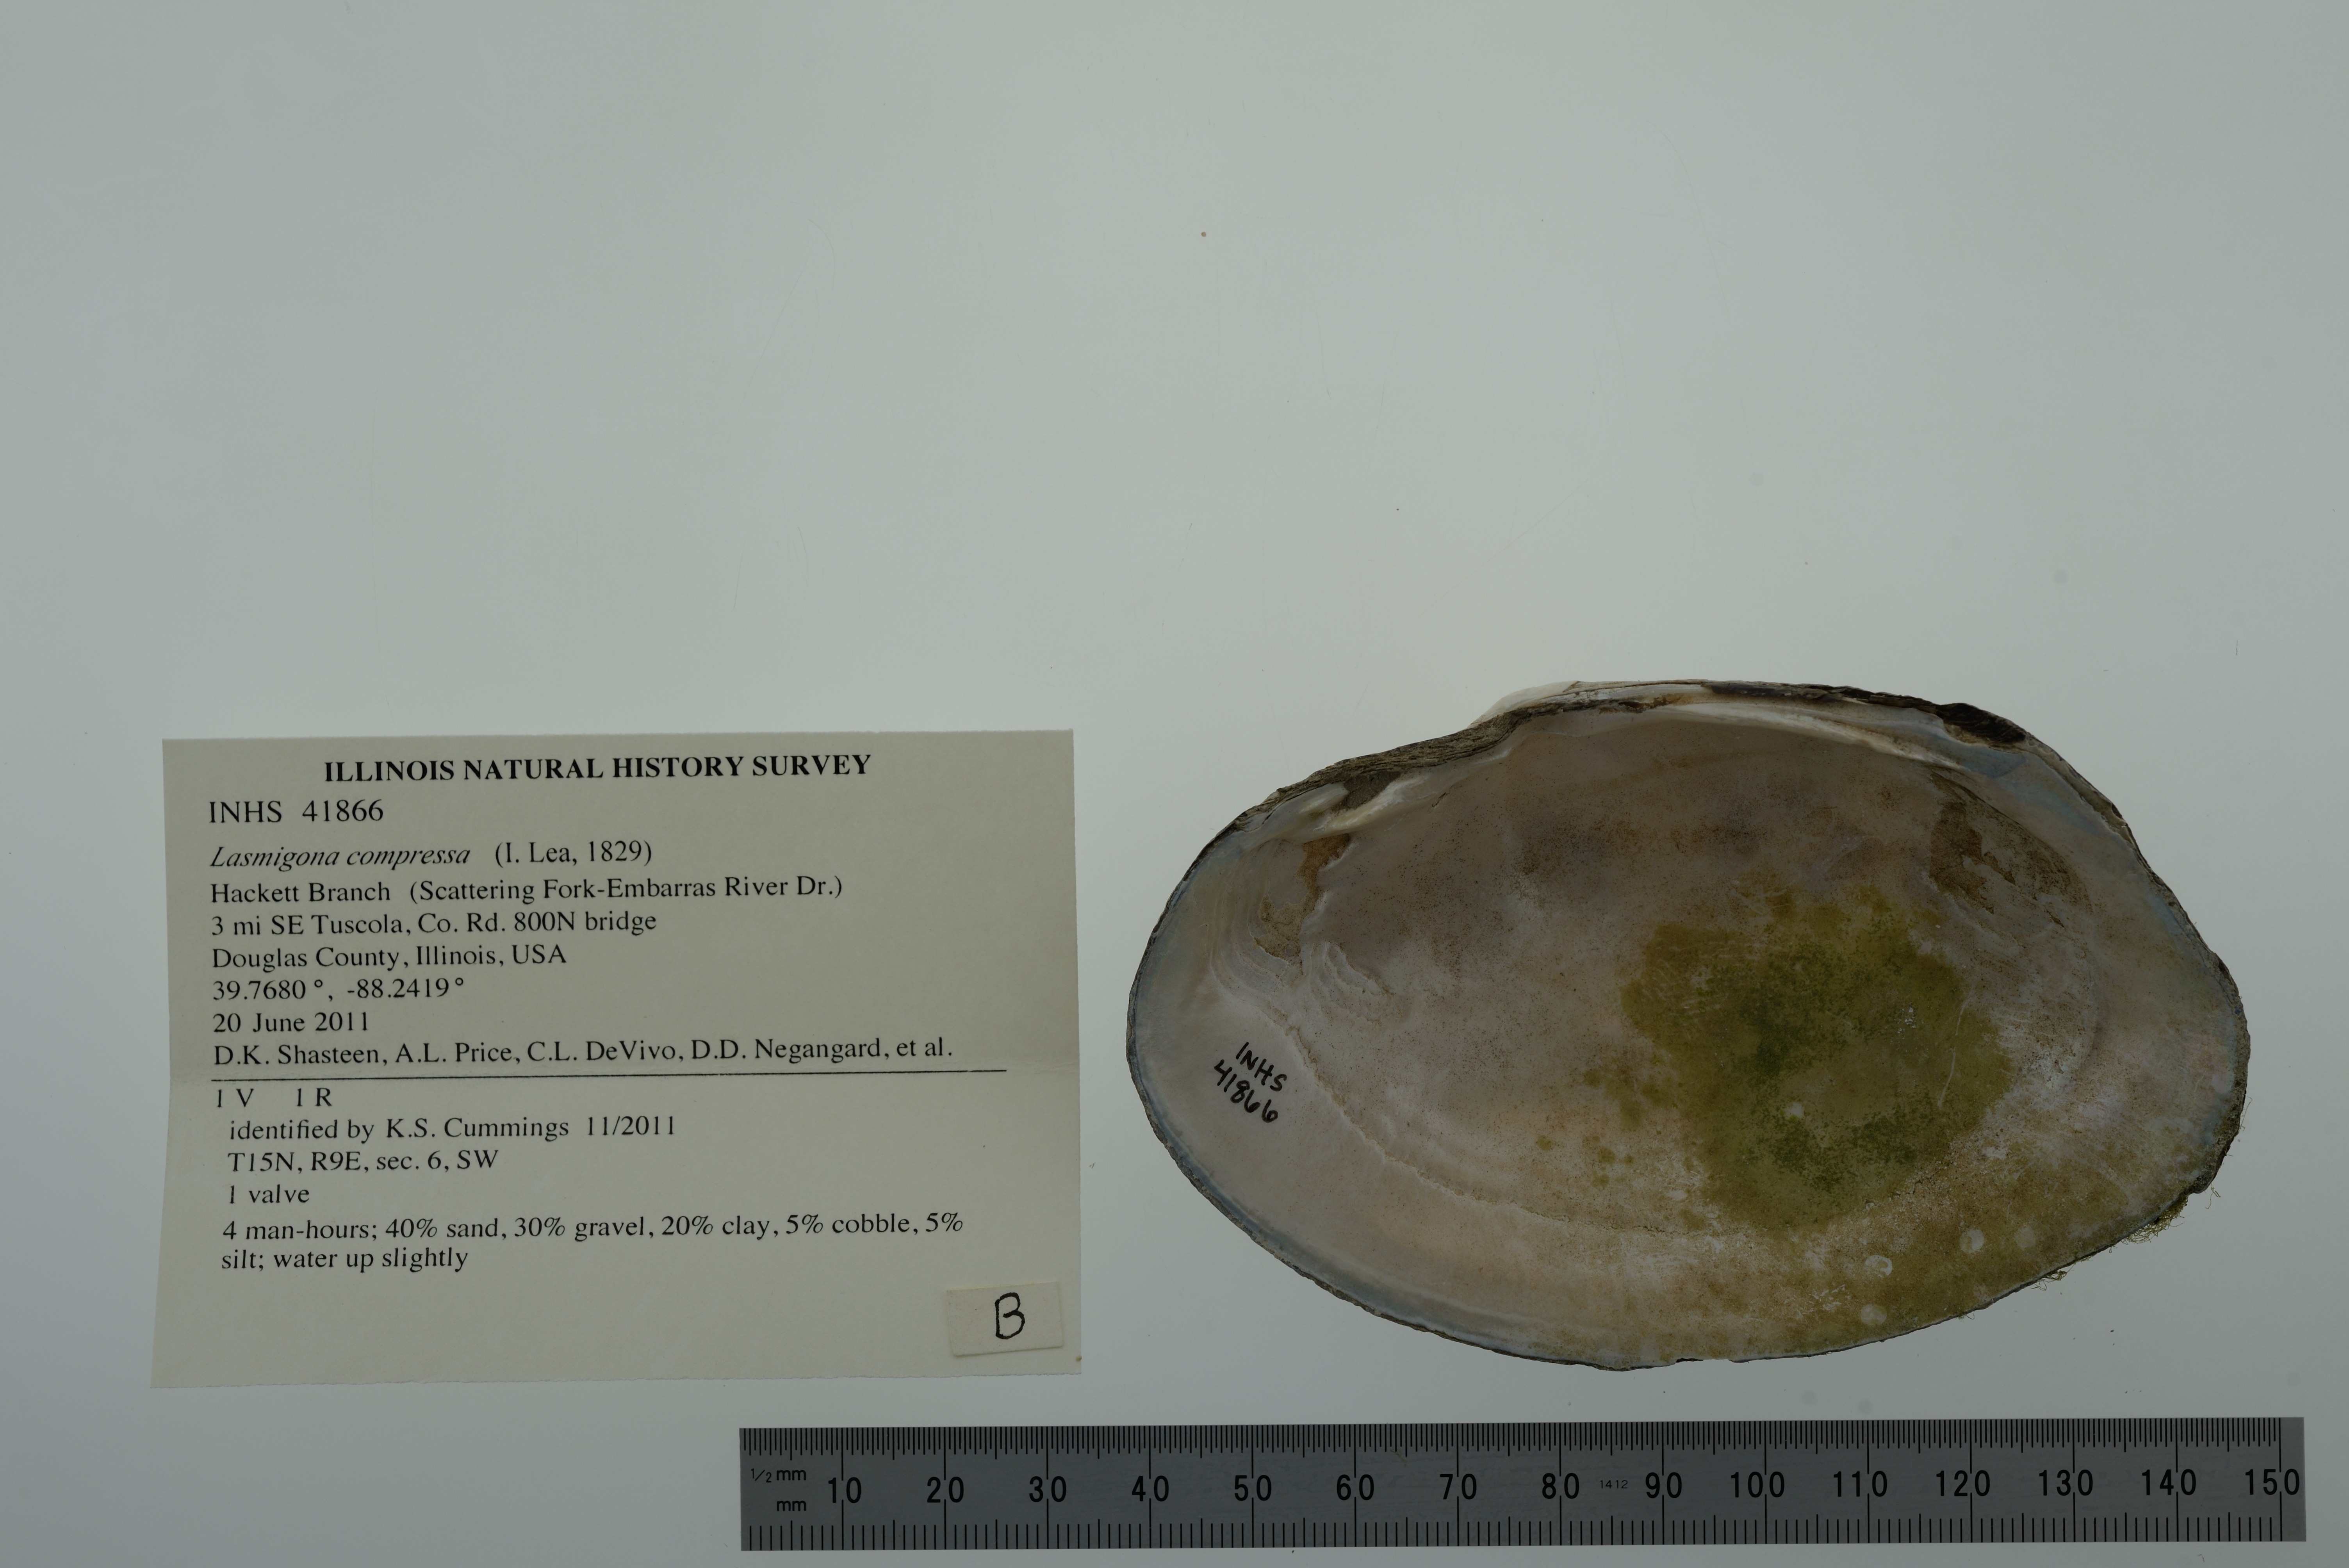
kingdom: Animalia
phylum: Mollusca
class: Bivalvia
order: Unionida
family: Unionidae
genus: Lasmigona
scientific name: Lasmigona compressa
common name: Creek heelsplitter
